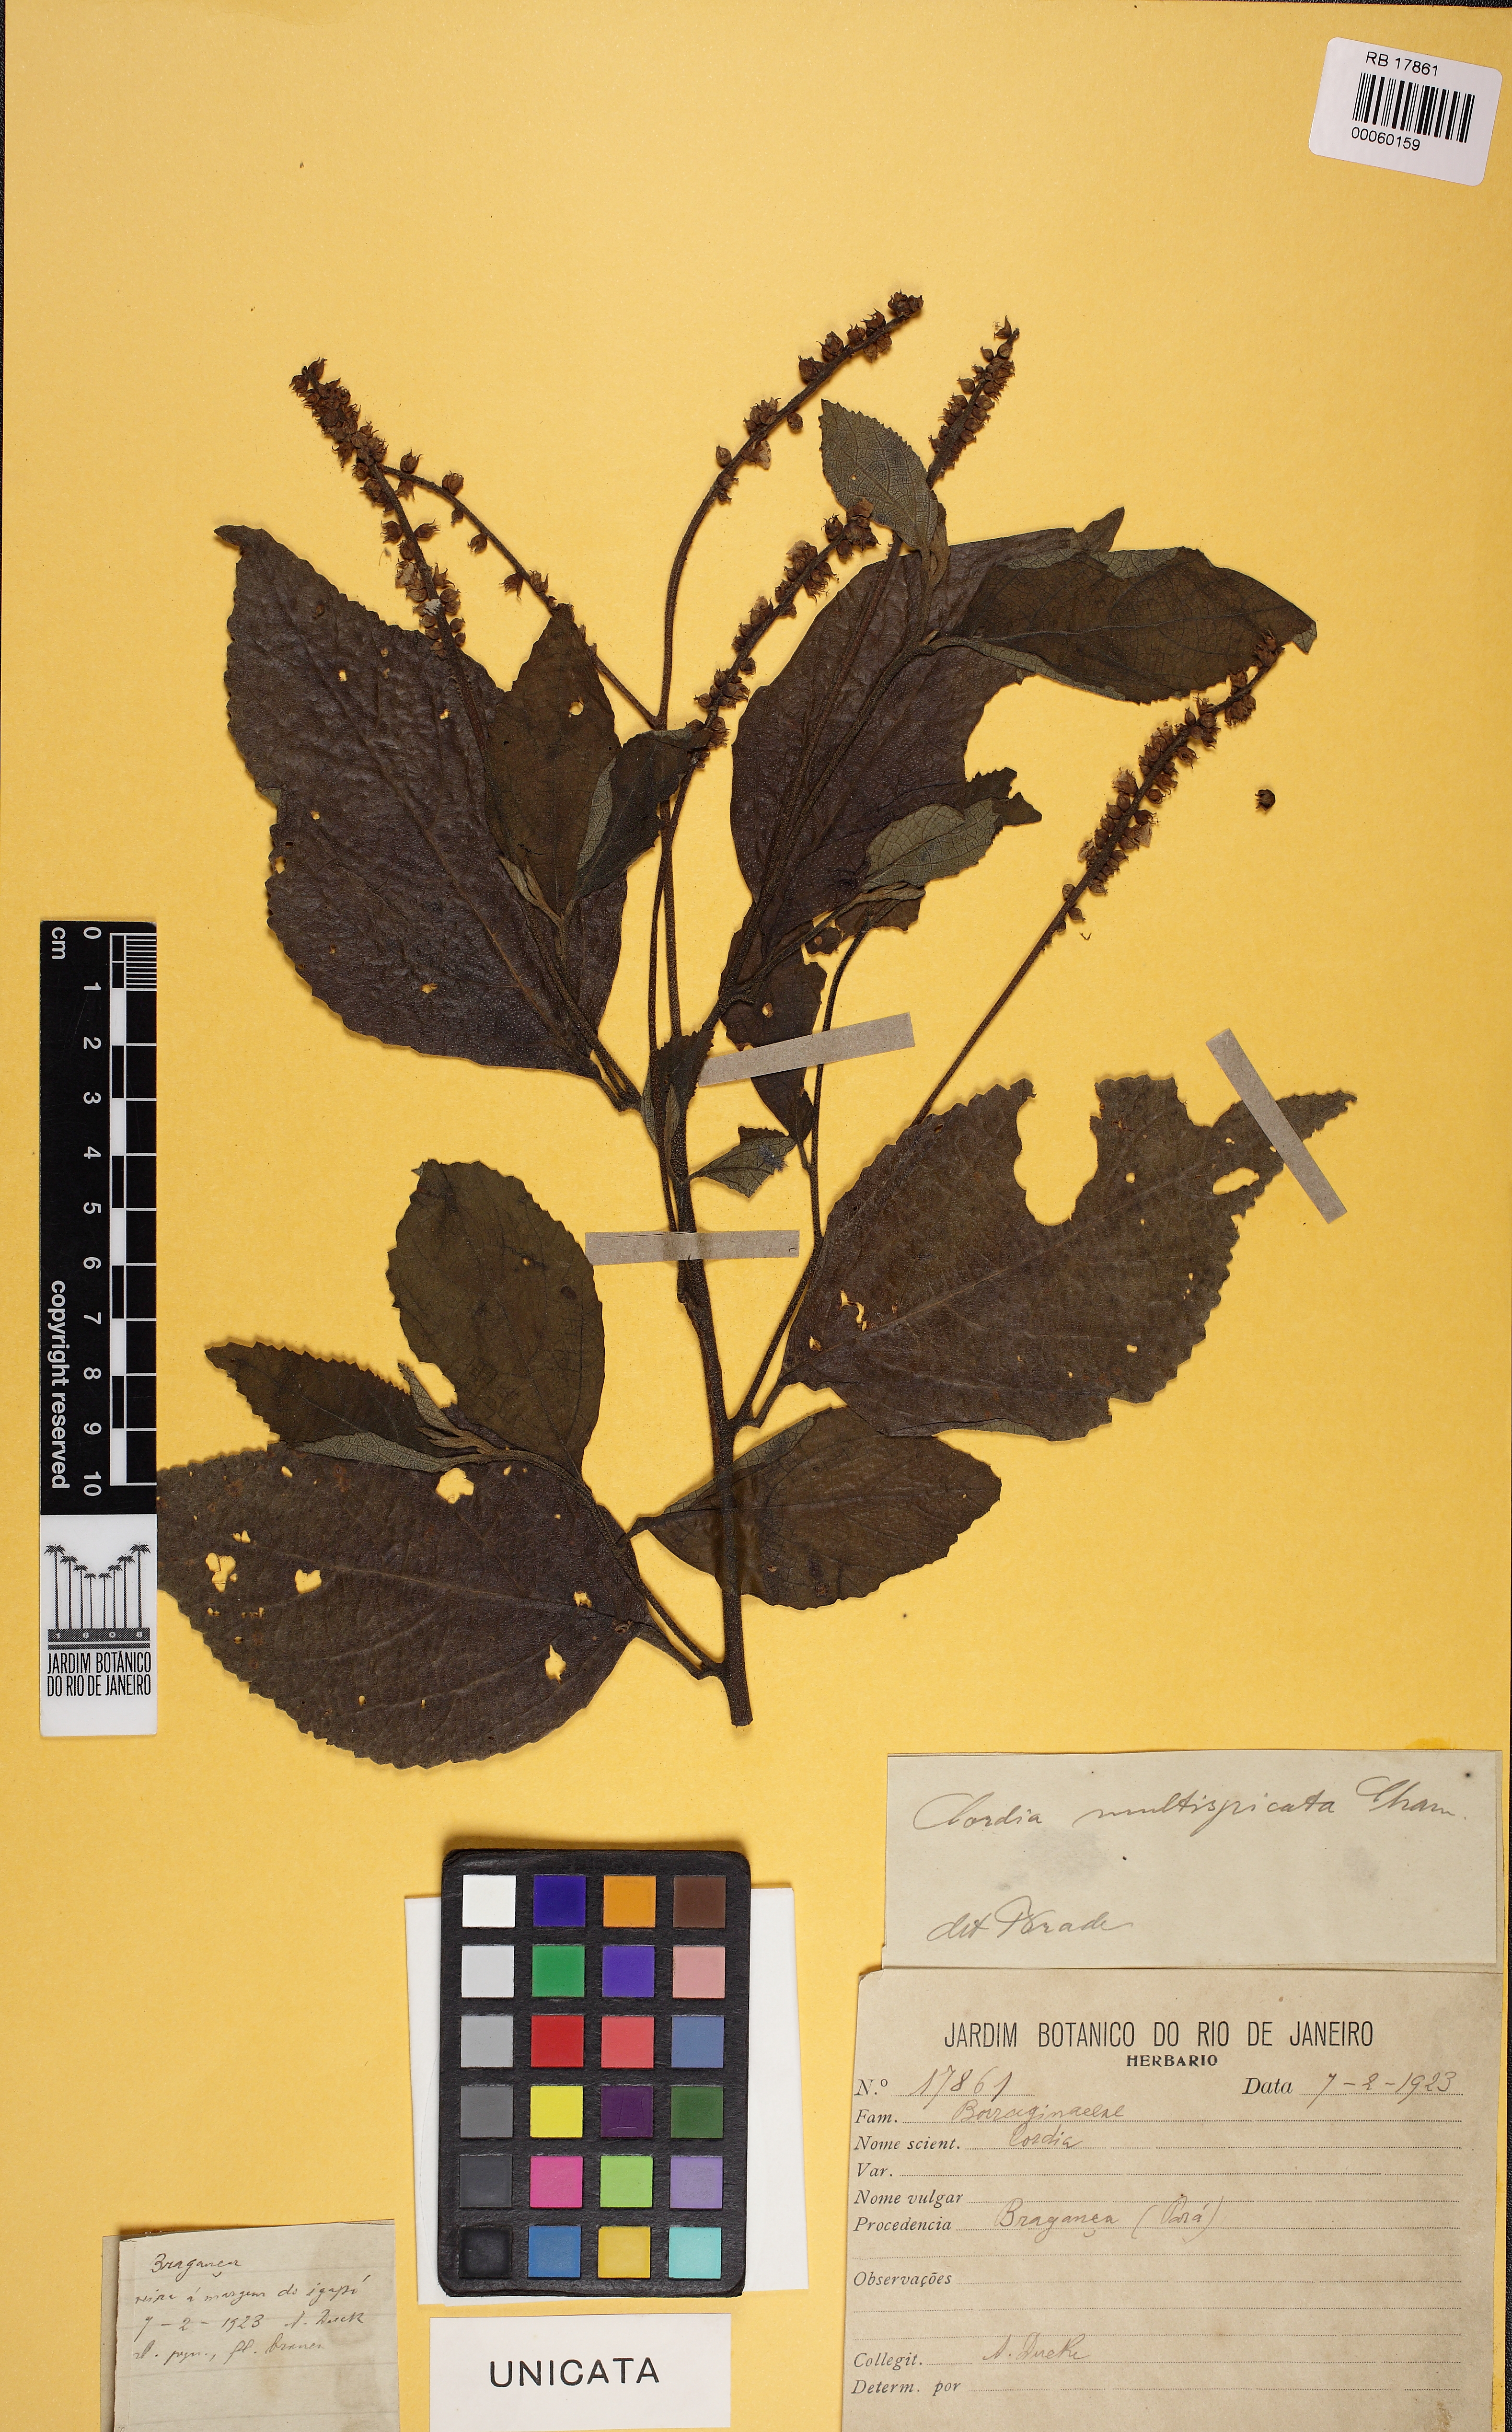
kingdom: Plantae
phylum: Tracheophyta
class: Magnoliopsida
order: Boraginales
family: Cordiaceae
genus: Varronia
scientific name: Varronia multispicata
